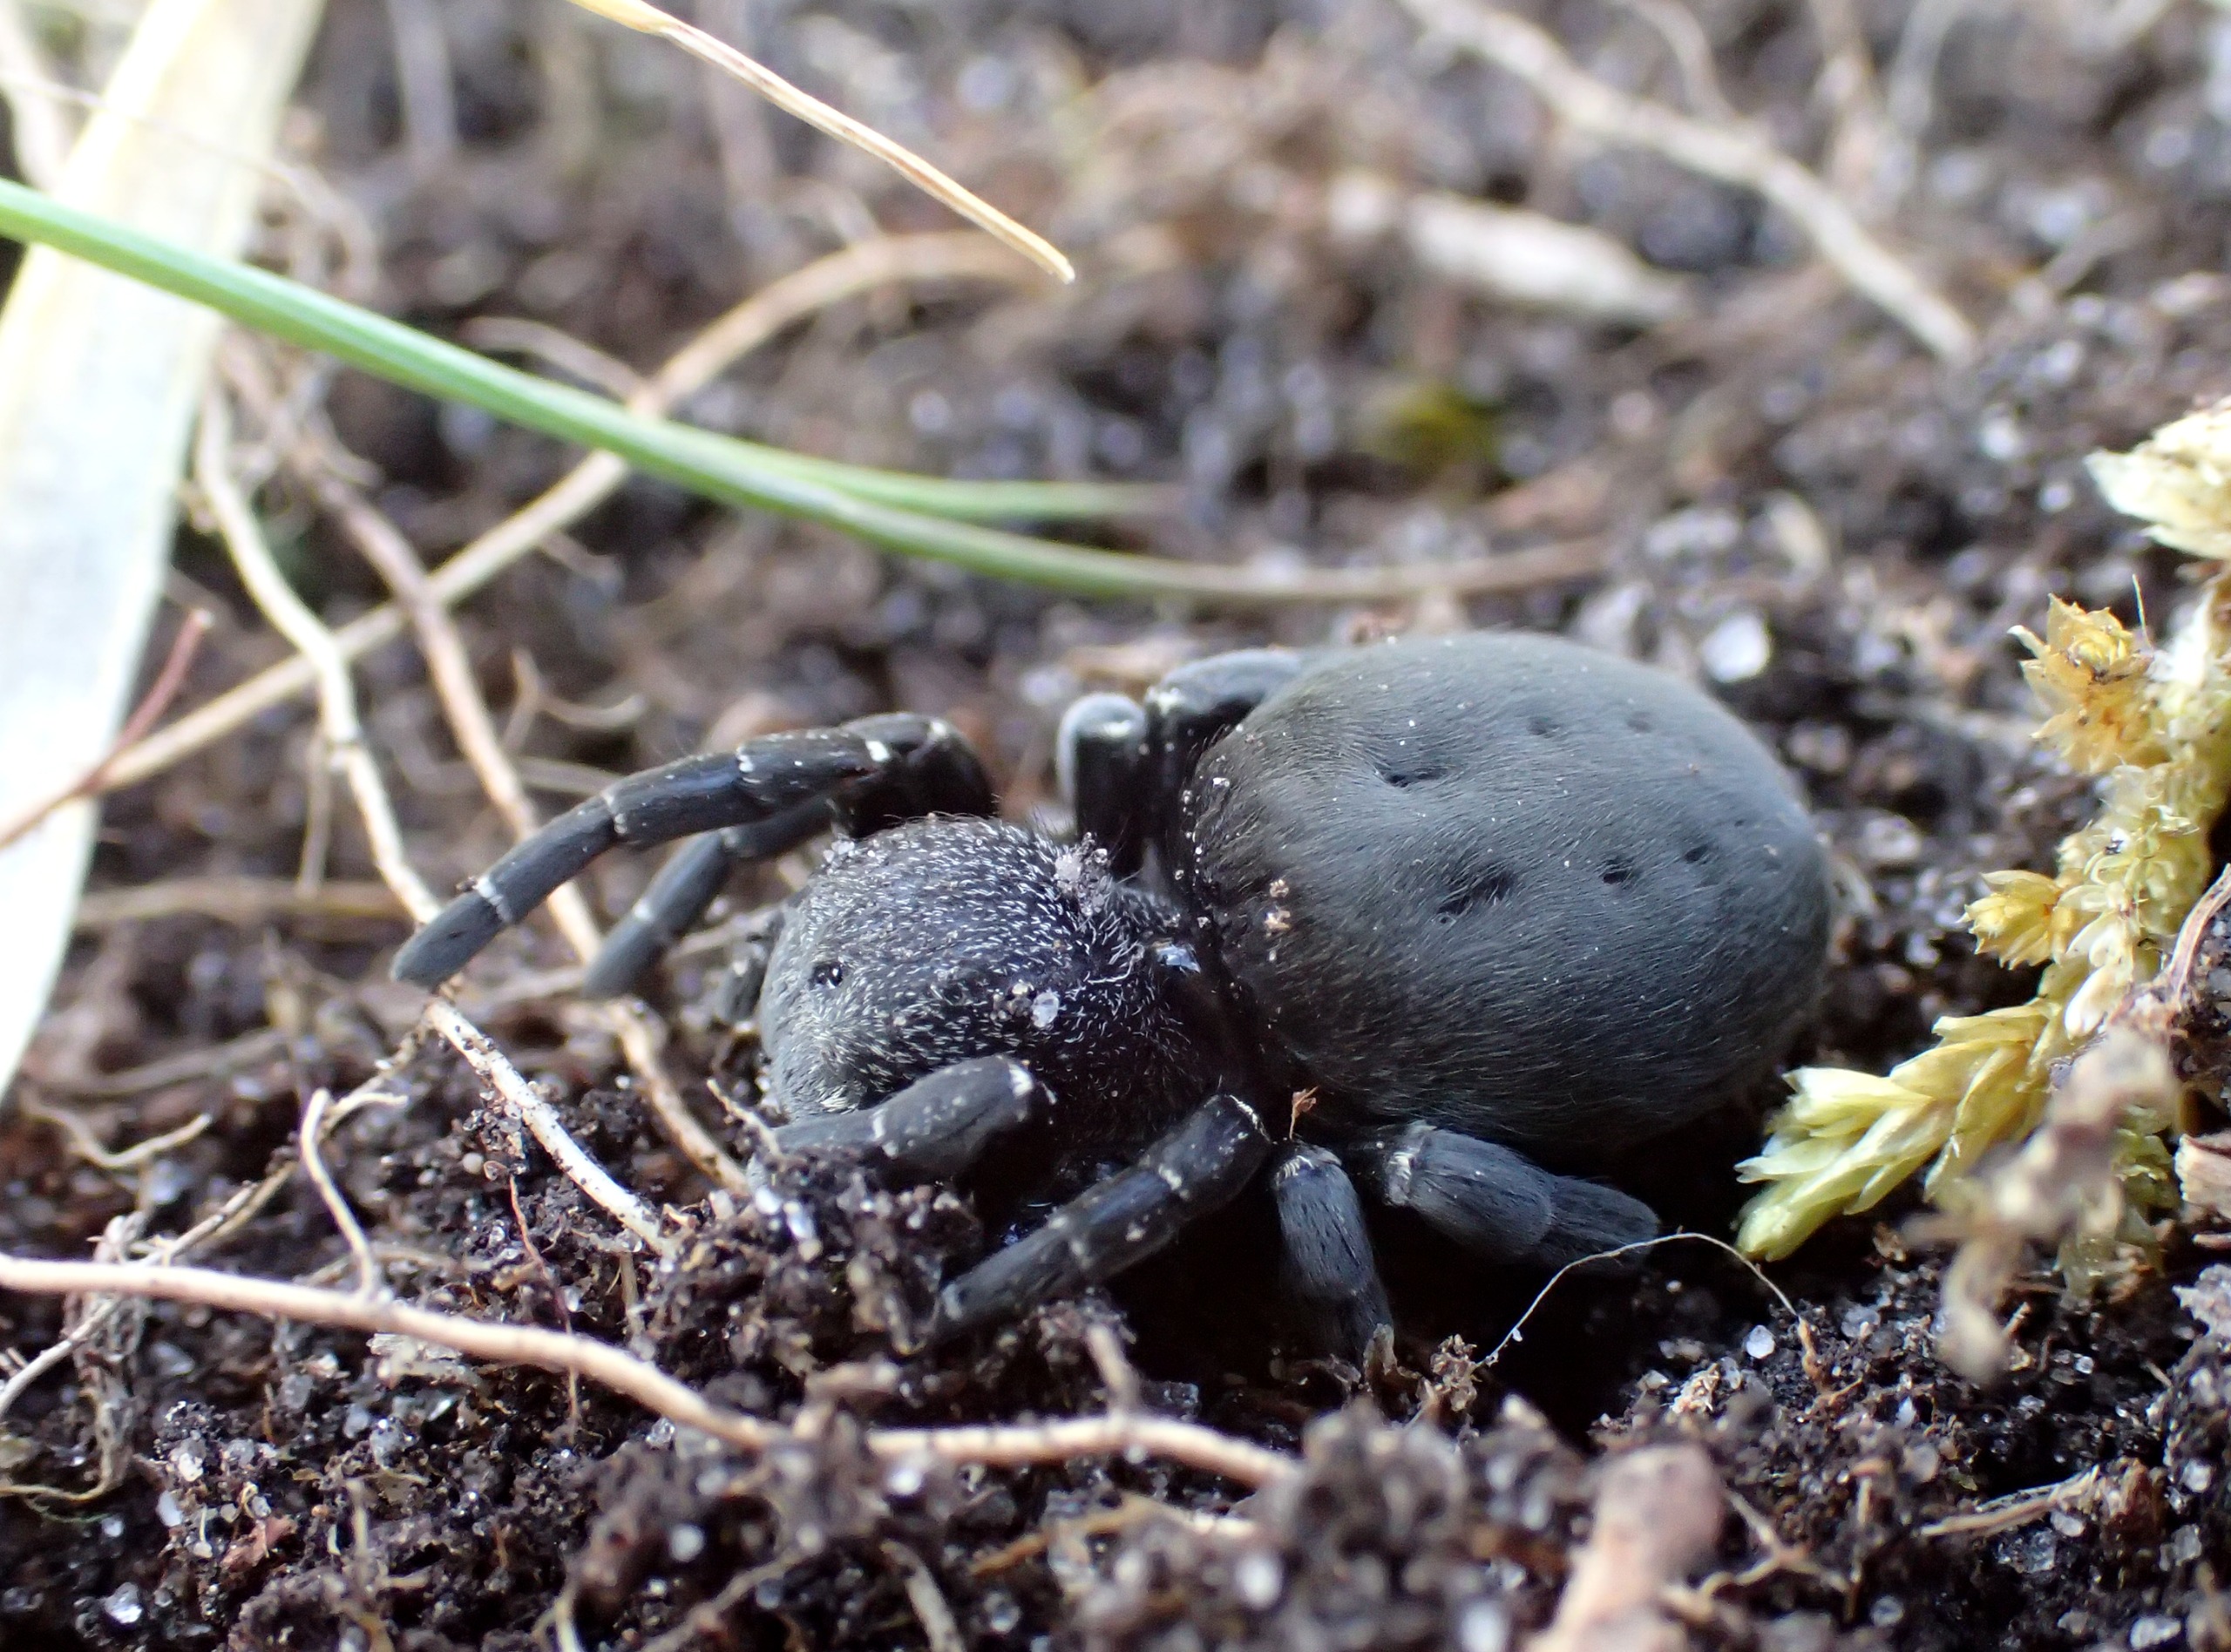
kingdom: Animalia
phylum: Arthropoda
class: Arachnida
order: Araneae
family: Eresidae
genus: Eresus
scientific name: Eresus sandaliatus
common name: Mariehøneedderkop
